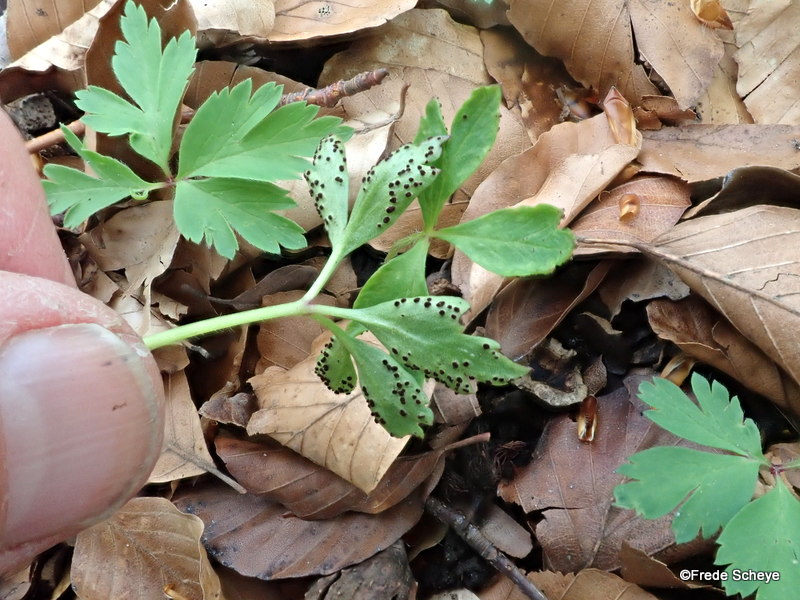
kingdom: Fungi
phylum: Basidiomycota
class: Pucciniomycetes
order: Pucciniales
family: Tranzscheliaceae
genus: Tranzschelia
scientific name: Tranzschelia anemones
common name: anemone-knæksporerust
